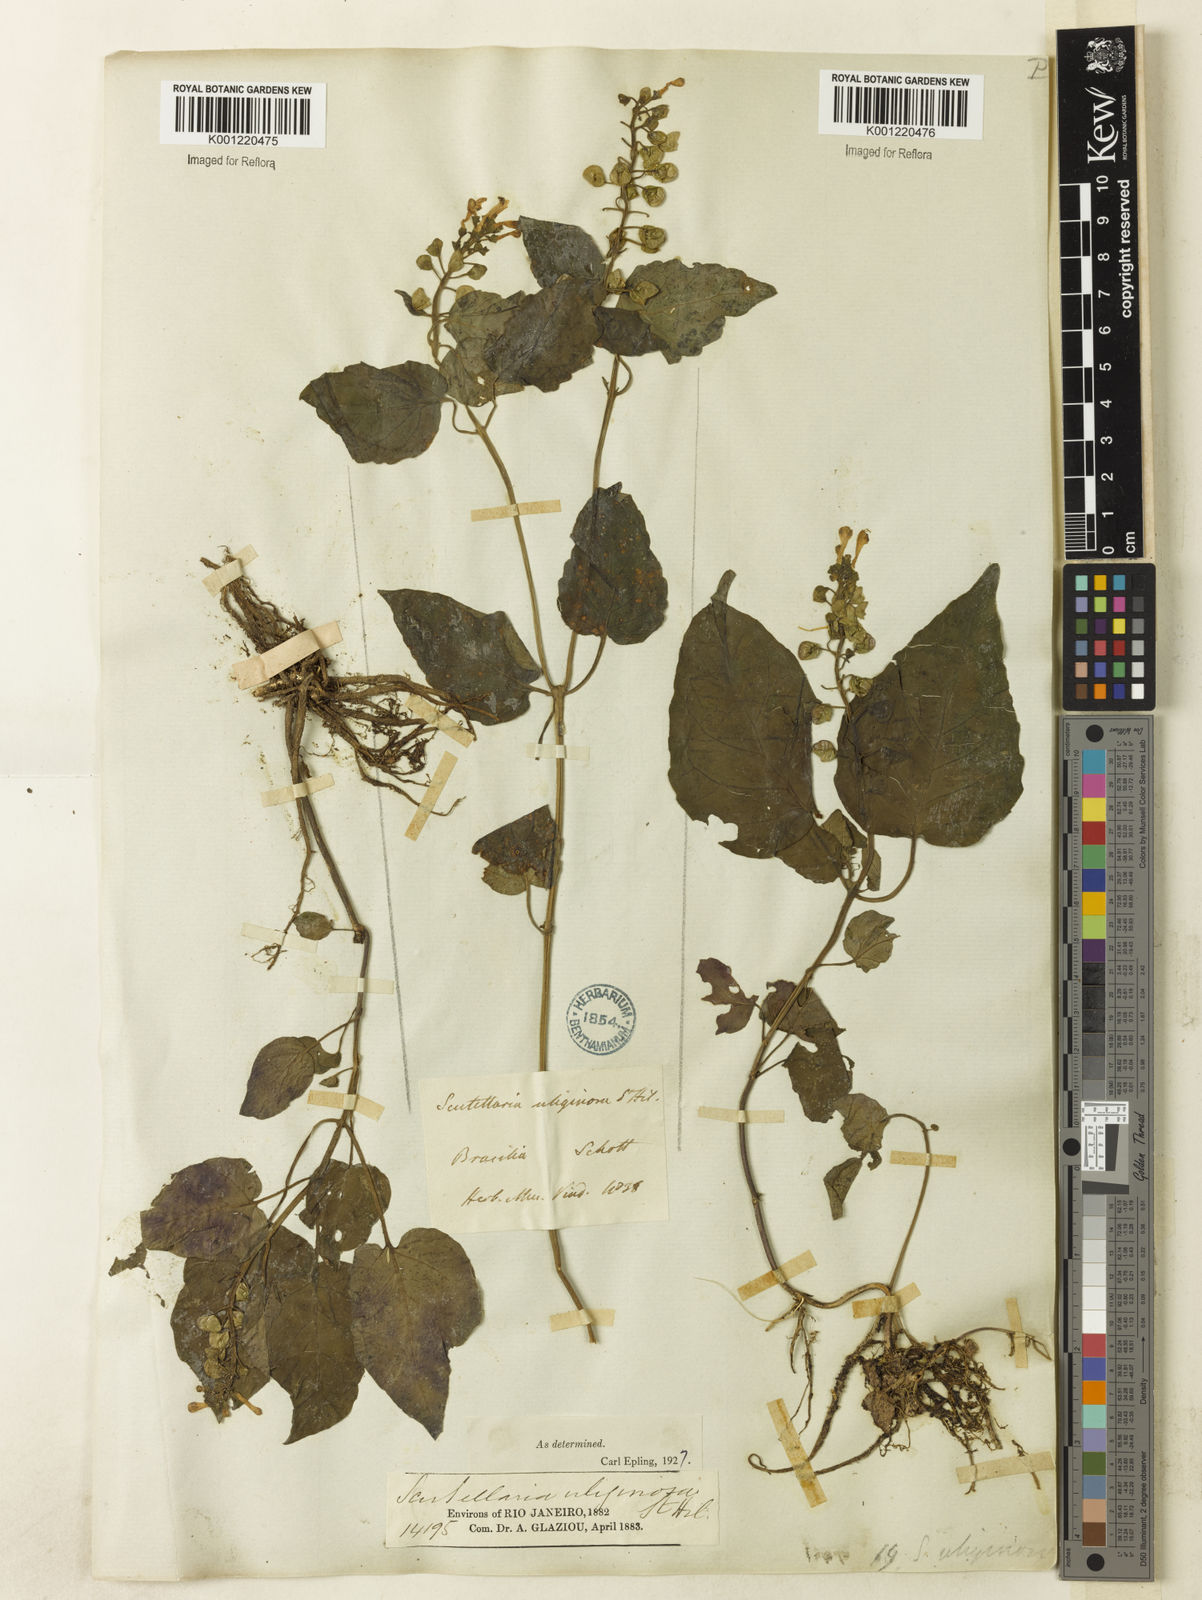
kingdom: Plantae
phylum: Tracheophyta
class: Magnoliopsida
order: Lamiales
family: Lamiaceae
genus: Scutellaria
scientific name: Scutellaria uliginosa
